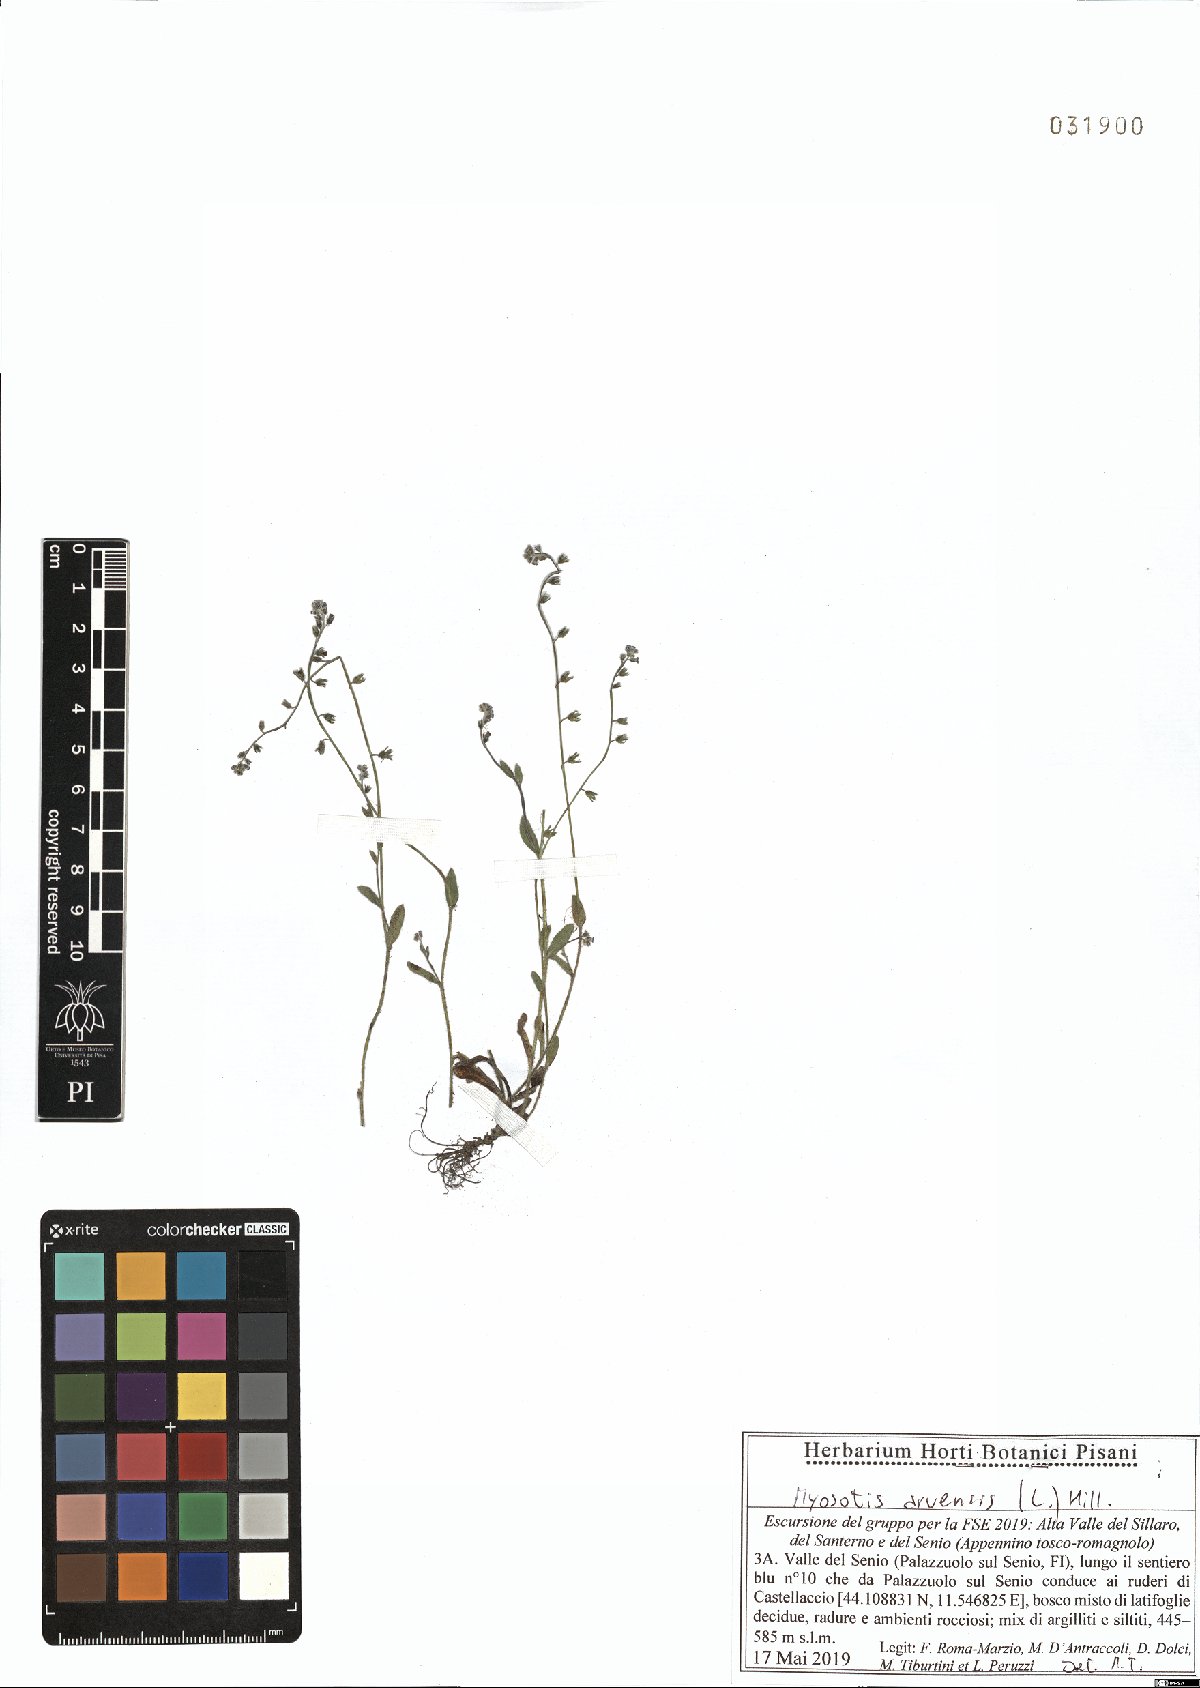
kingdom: Plantae
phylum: Tracheophyta
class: Magnoliopsida
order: Boraginales
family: Boraginaceae
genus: Myosotis
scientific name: Myosotis arvensis
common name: Field forget-me-not
